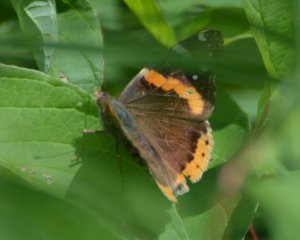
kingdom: Animalia
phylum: Arthropoda
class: Insecta
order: Lepidoptera
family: Nymphalidae
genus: Vanessa
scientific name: Vanessa atalanta
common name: Red Admiral
